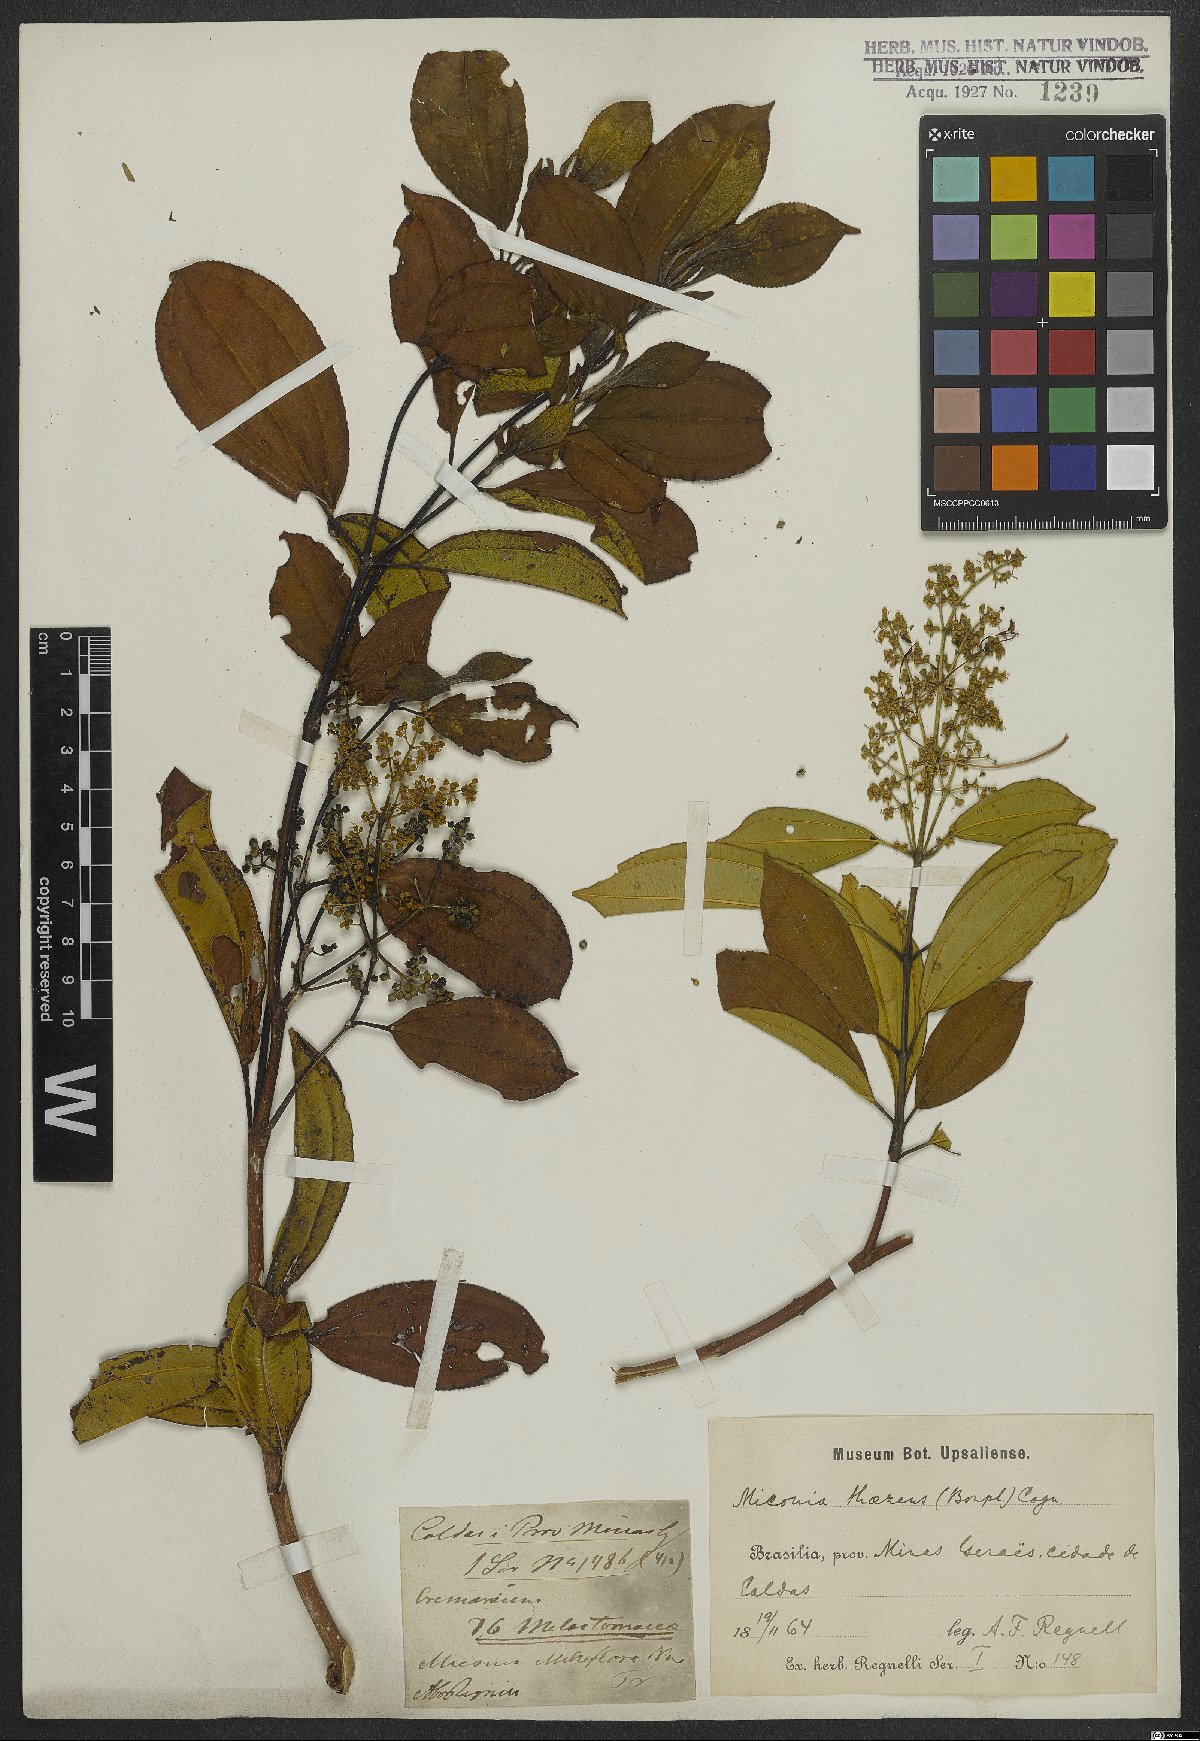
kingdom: Plantae
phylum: Tracheophyta
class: Magnoliopsida
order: Myrtales
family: Melastomataceae
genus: Miconia
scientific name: Miconia theizans
